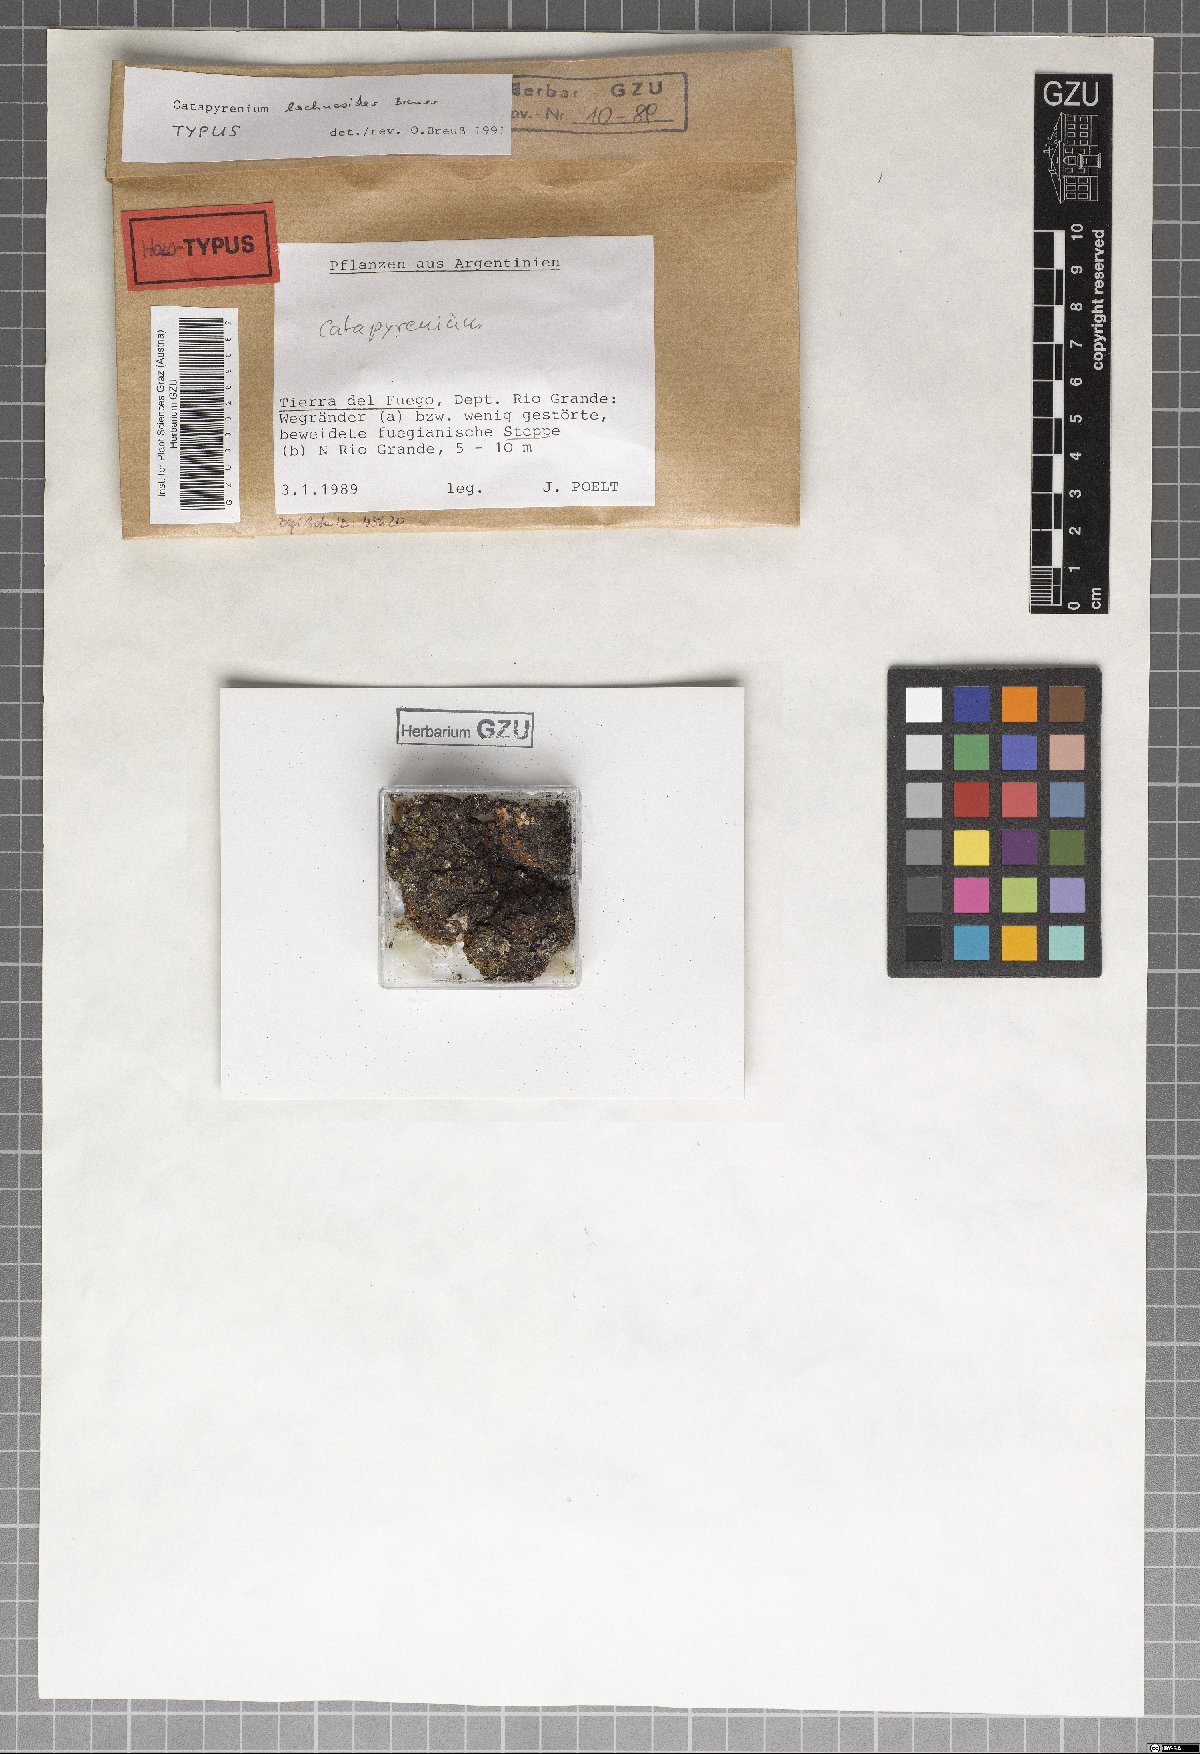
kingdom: Fungi
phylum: Ascomycota
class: Eurotiomycetes
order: Verrucariales
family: Verrucariaceae
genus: Catapyrenium
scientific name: Catapyrenium lachneoides
